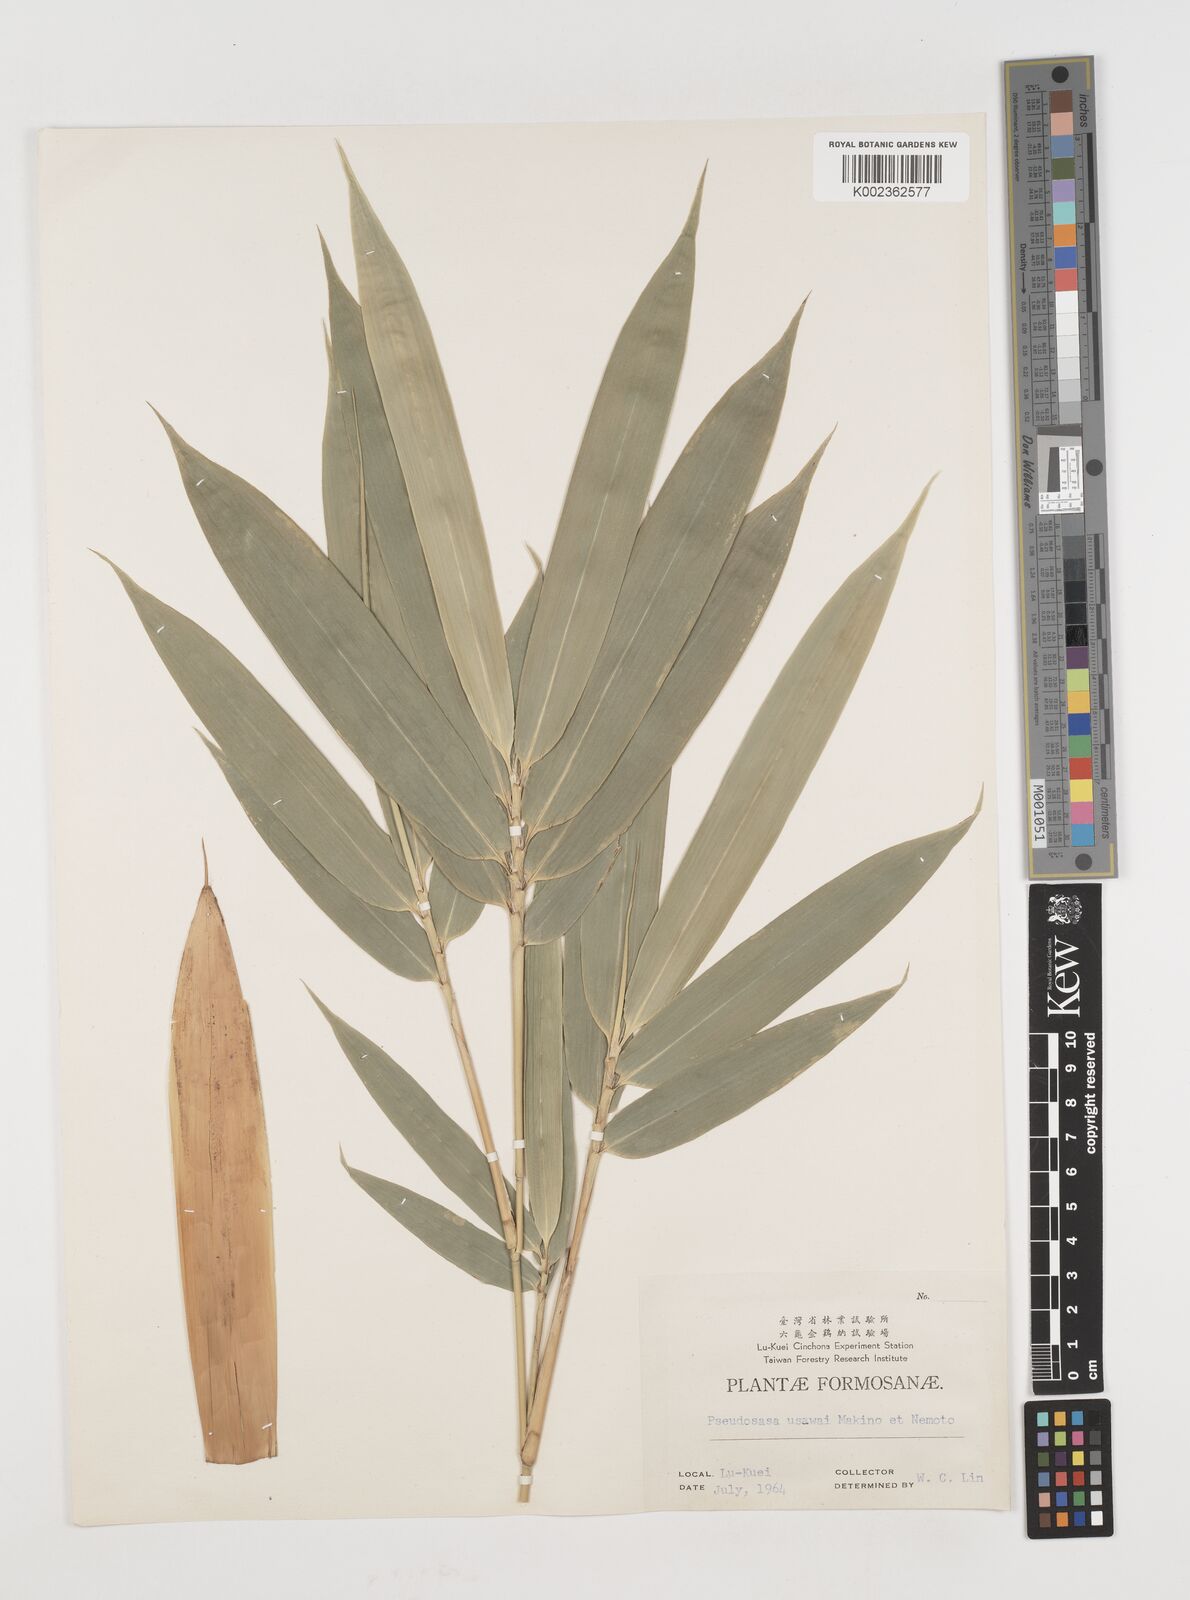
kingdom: Plantae
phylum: Tracheophyta
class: Liliopsida
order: Poales
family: Poaceae
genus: Pseudosasa
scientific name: Pseudosasa japonica
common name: Arrow bamboo
